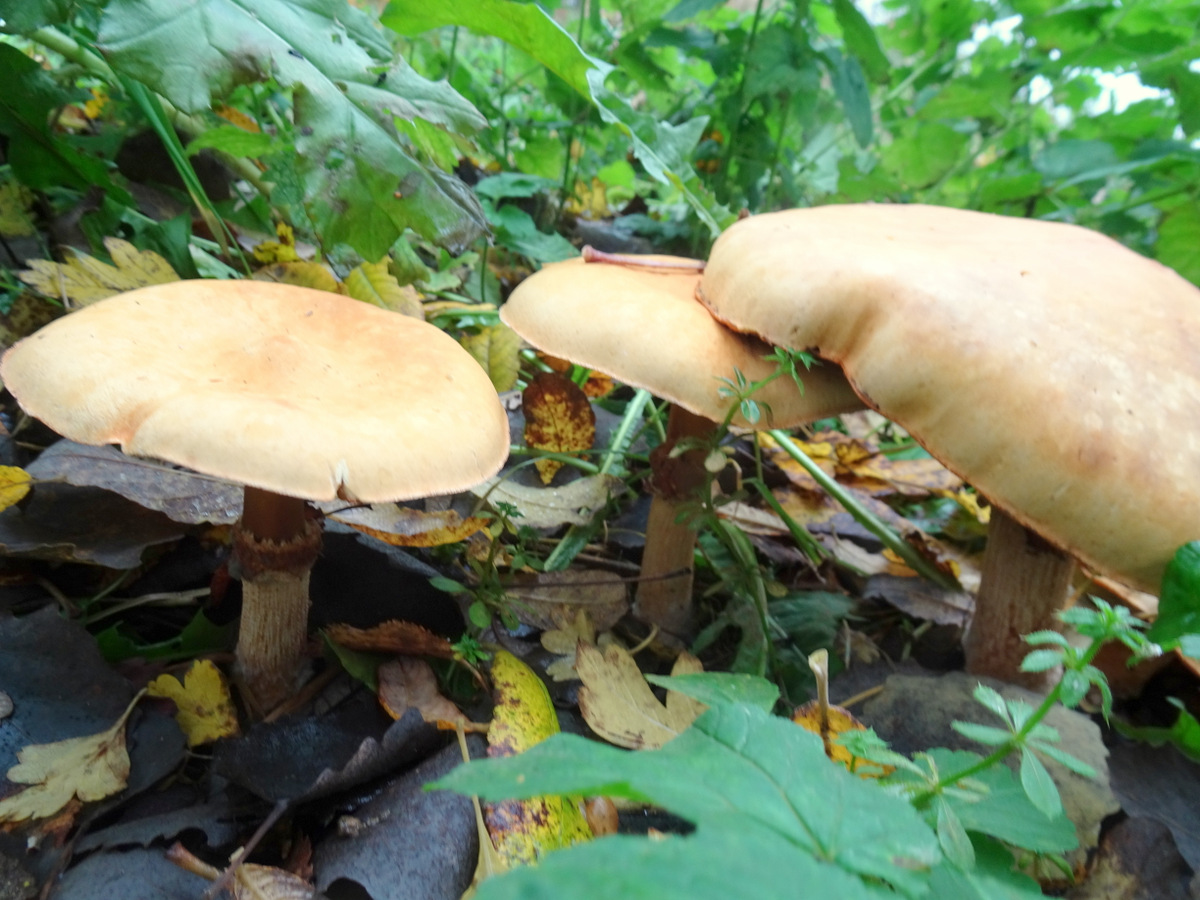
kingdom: Fungi
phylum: Basidiomycota
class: Agaricomycetes
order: Agaricales
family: Tricholomataceae
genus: Phaeolepiota
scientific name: Phaeolepiota aurea
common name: gyldenhat
